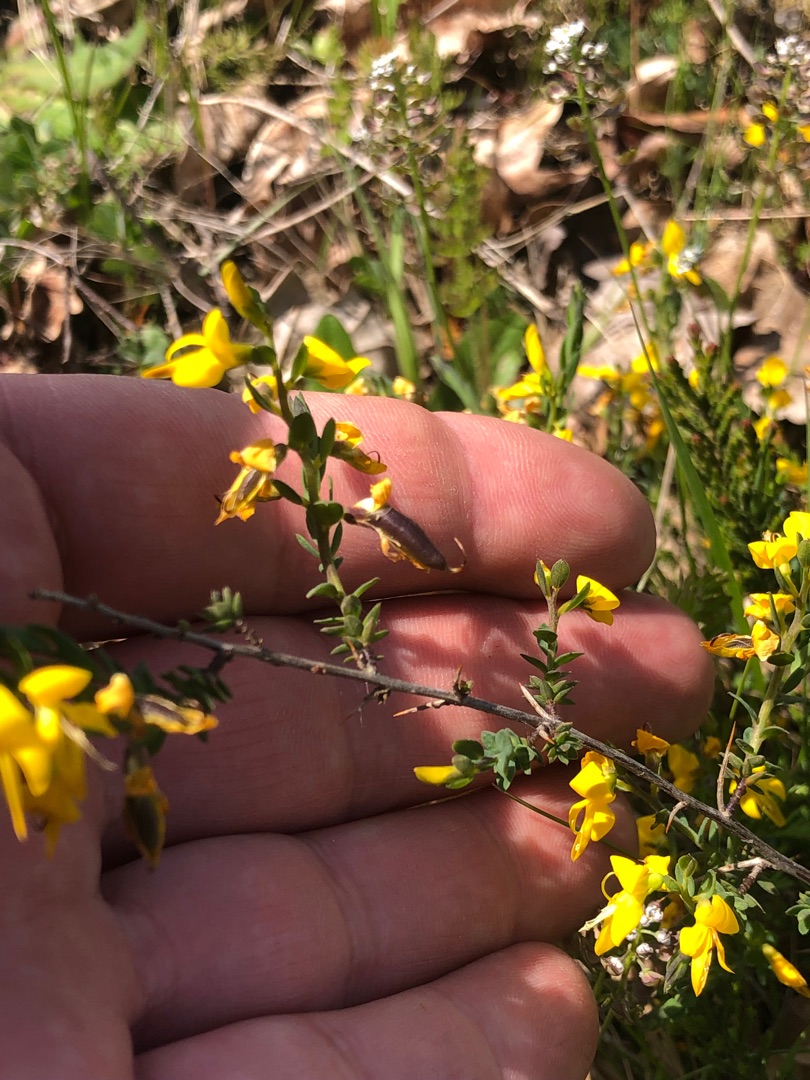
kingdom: Plantae
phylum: Tracheophyta
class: Magnoliopsida
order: Fabales
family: Fabaceae
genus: Genista
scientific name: Genista anglica
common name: Engelsk visse
